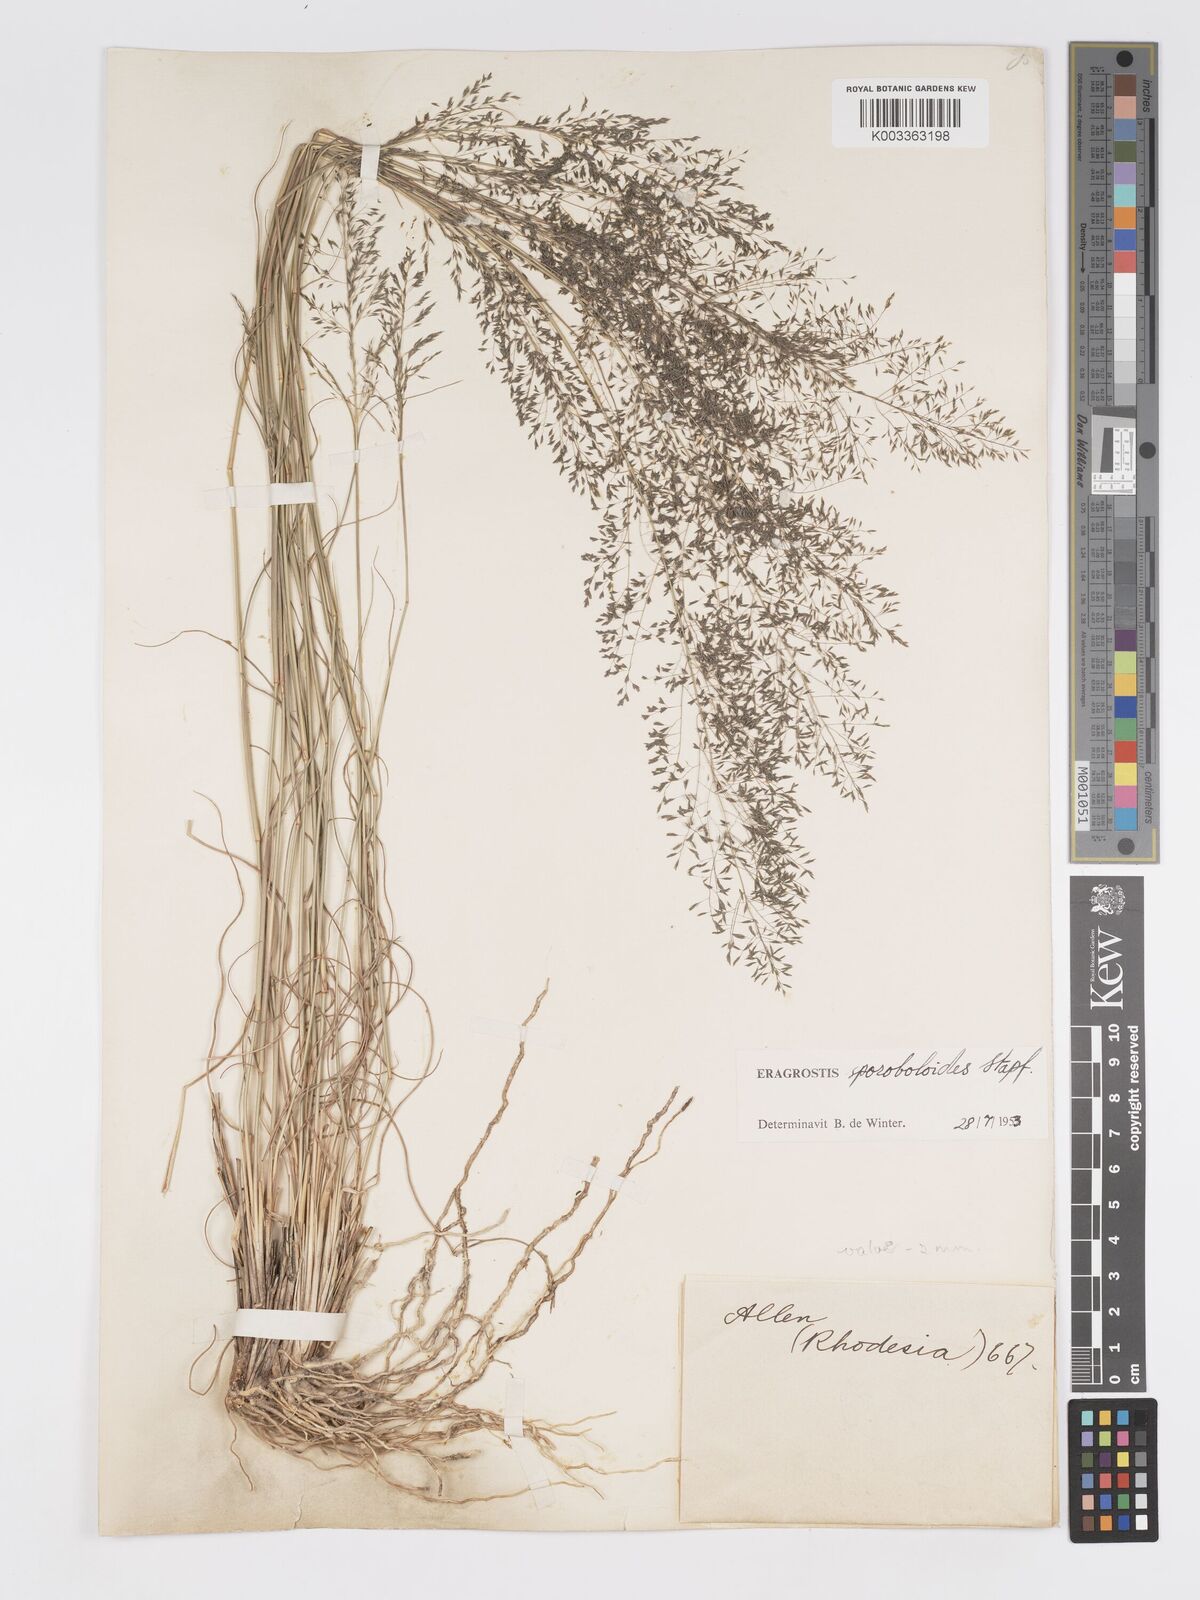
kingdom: Plantae
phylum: Tracheophyta
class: Liliopsida
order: Poales
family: Poaceae
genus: Eragrostis
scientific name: Eragrostis stapfii
